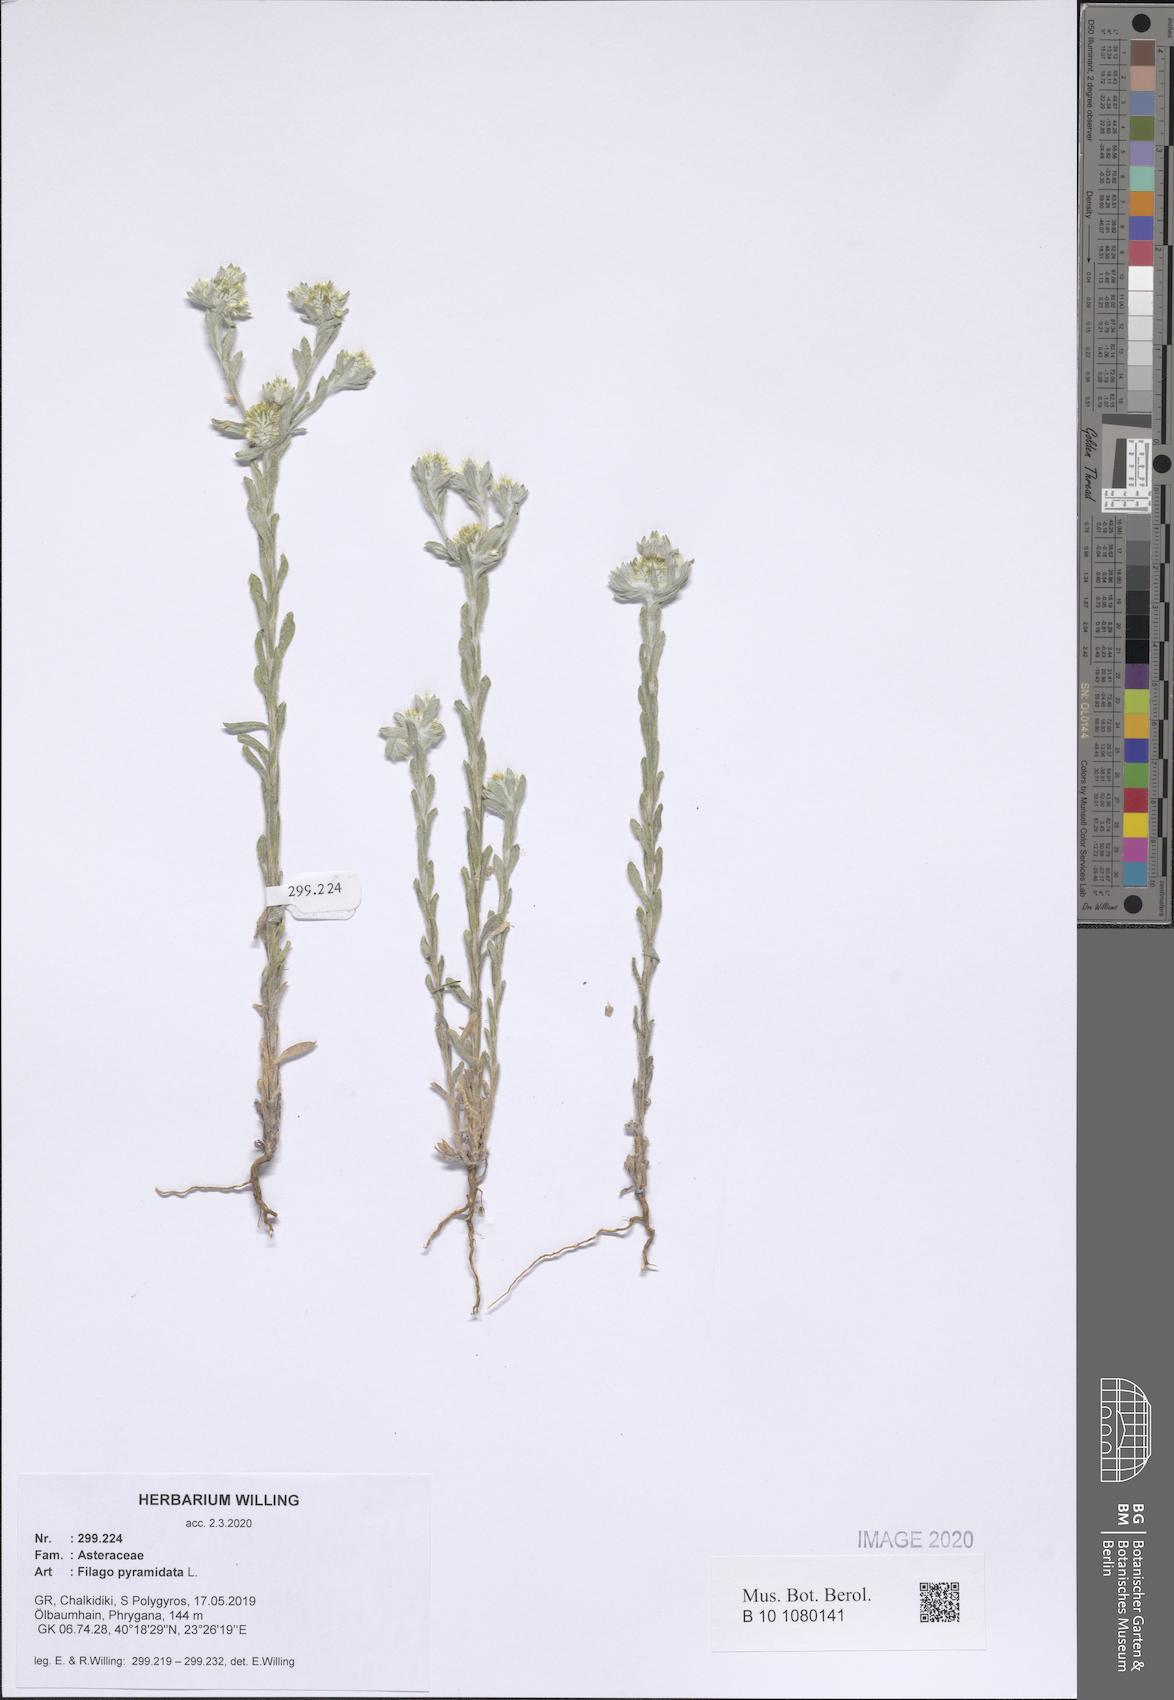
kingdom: Plantae
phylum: Tracheophyta
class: Magnoliopsida
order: Asterales
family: Asteraceae
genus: Filago
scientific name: Filago pyramidata
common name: Broad-leaved cudweed
